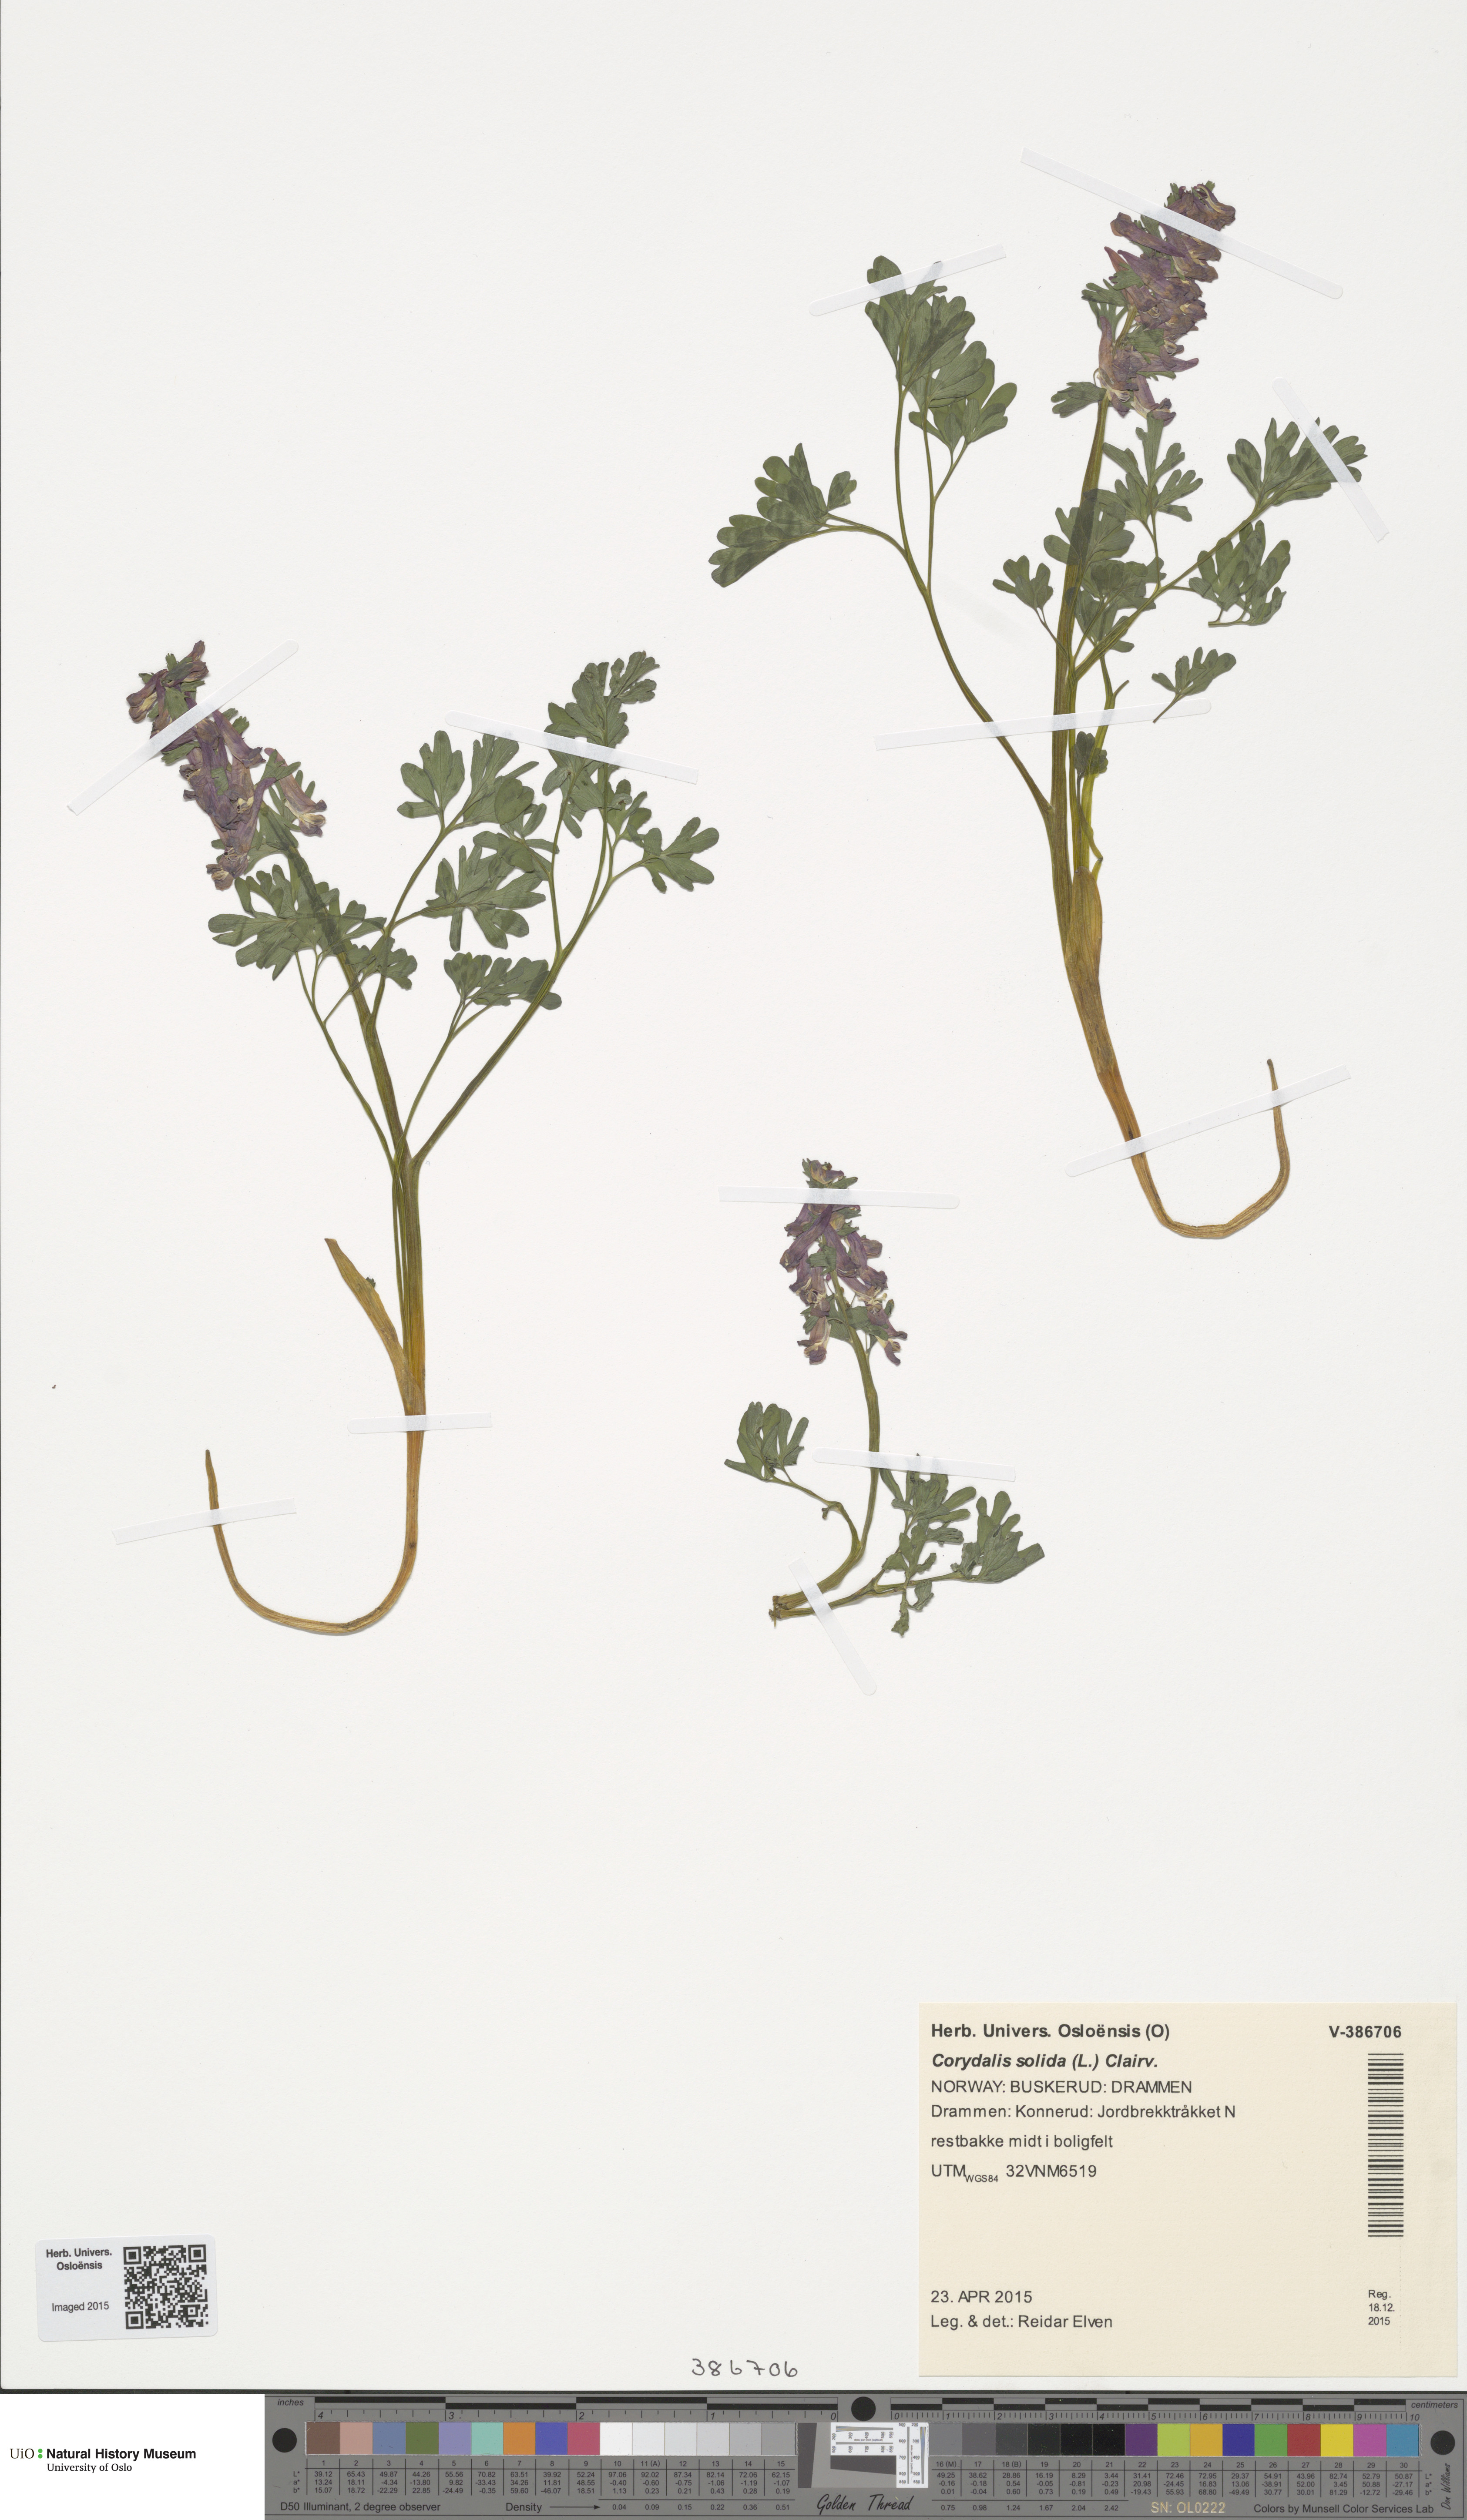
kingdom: Plantae
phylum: Tracheophyta
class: Magnoliopsida
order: Ranunculales
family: Papaveraceae
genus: Corydalis
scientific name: Corydalis solida
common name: Bird-in-a-bush
